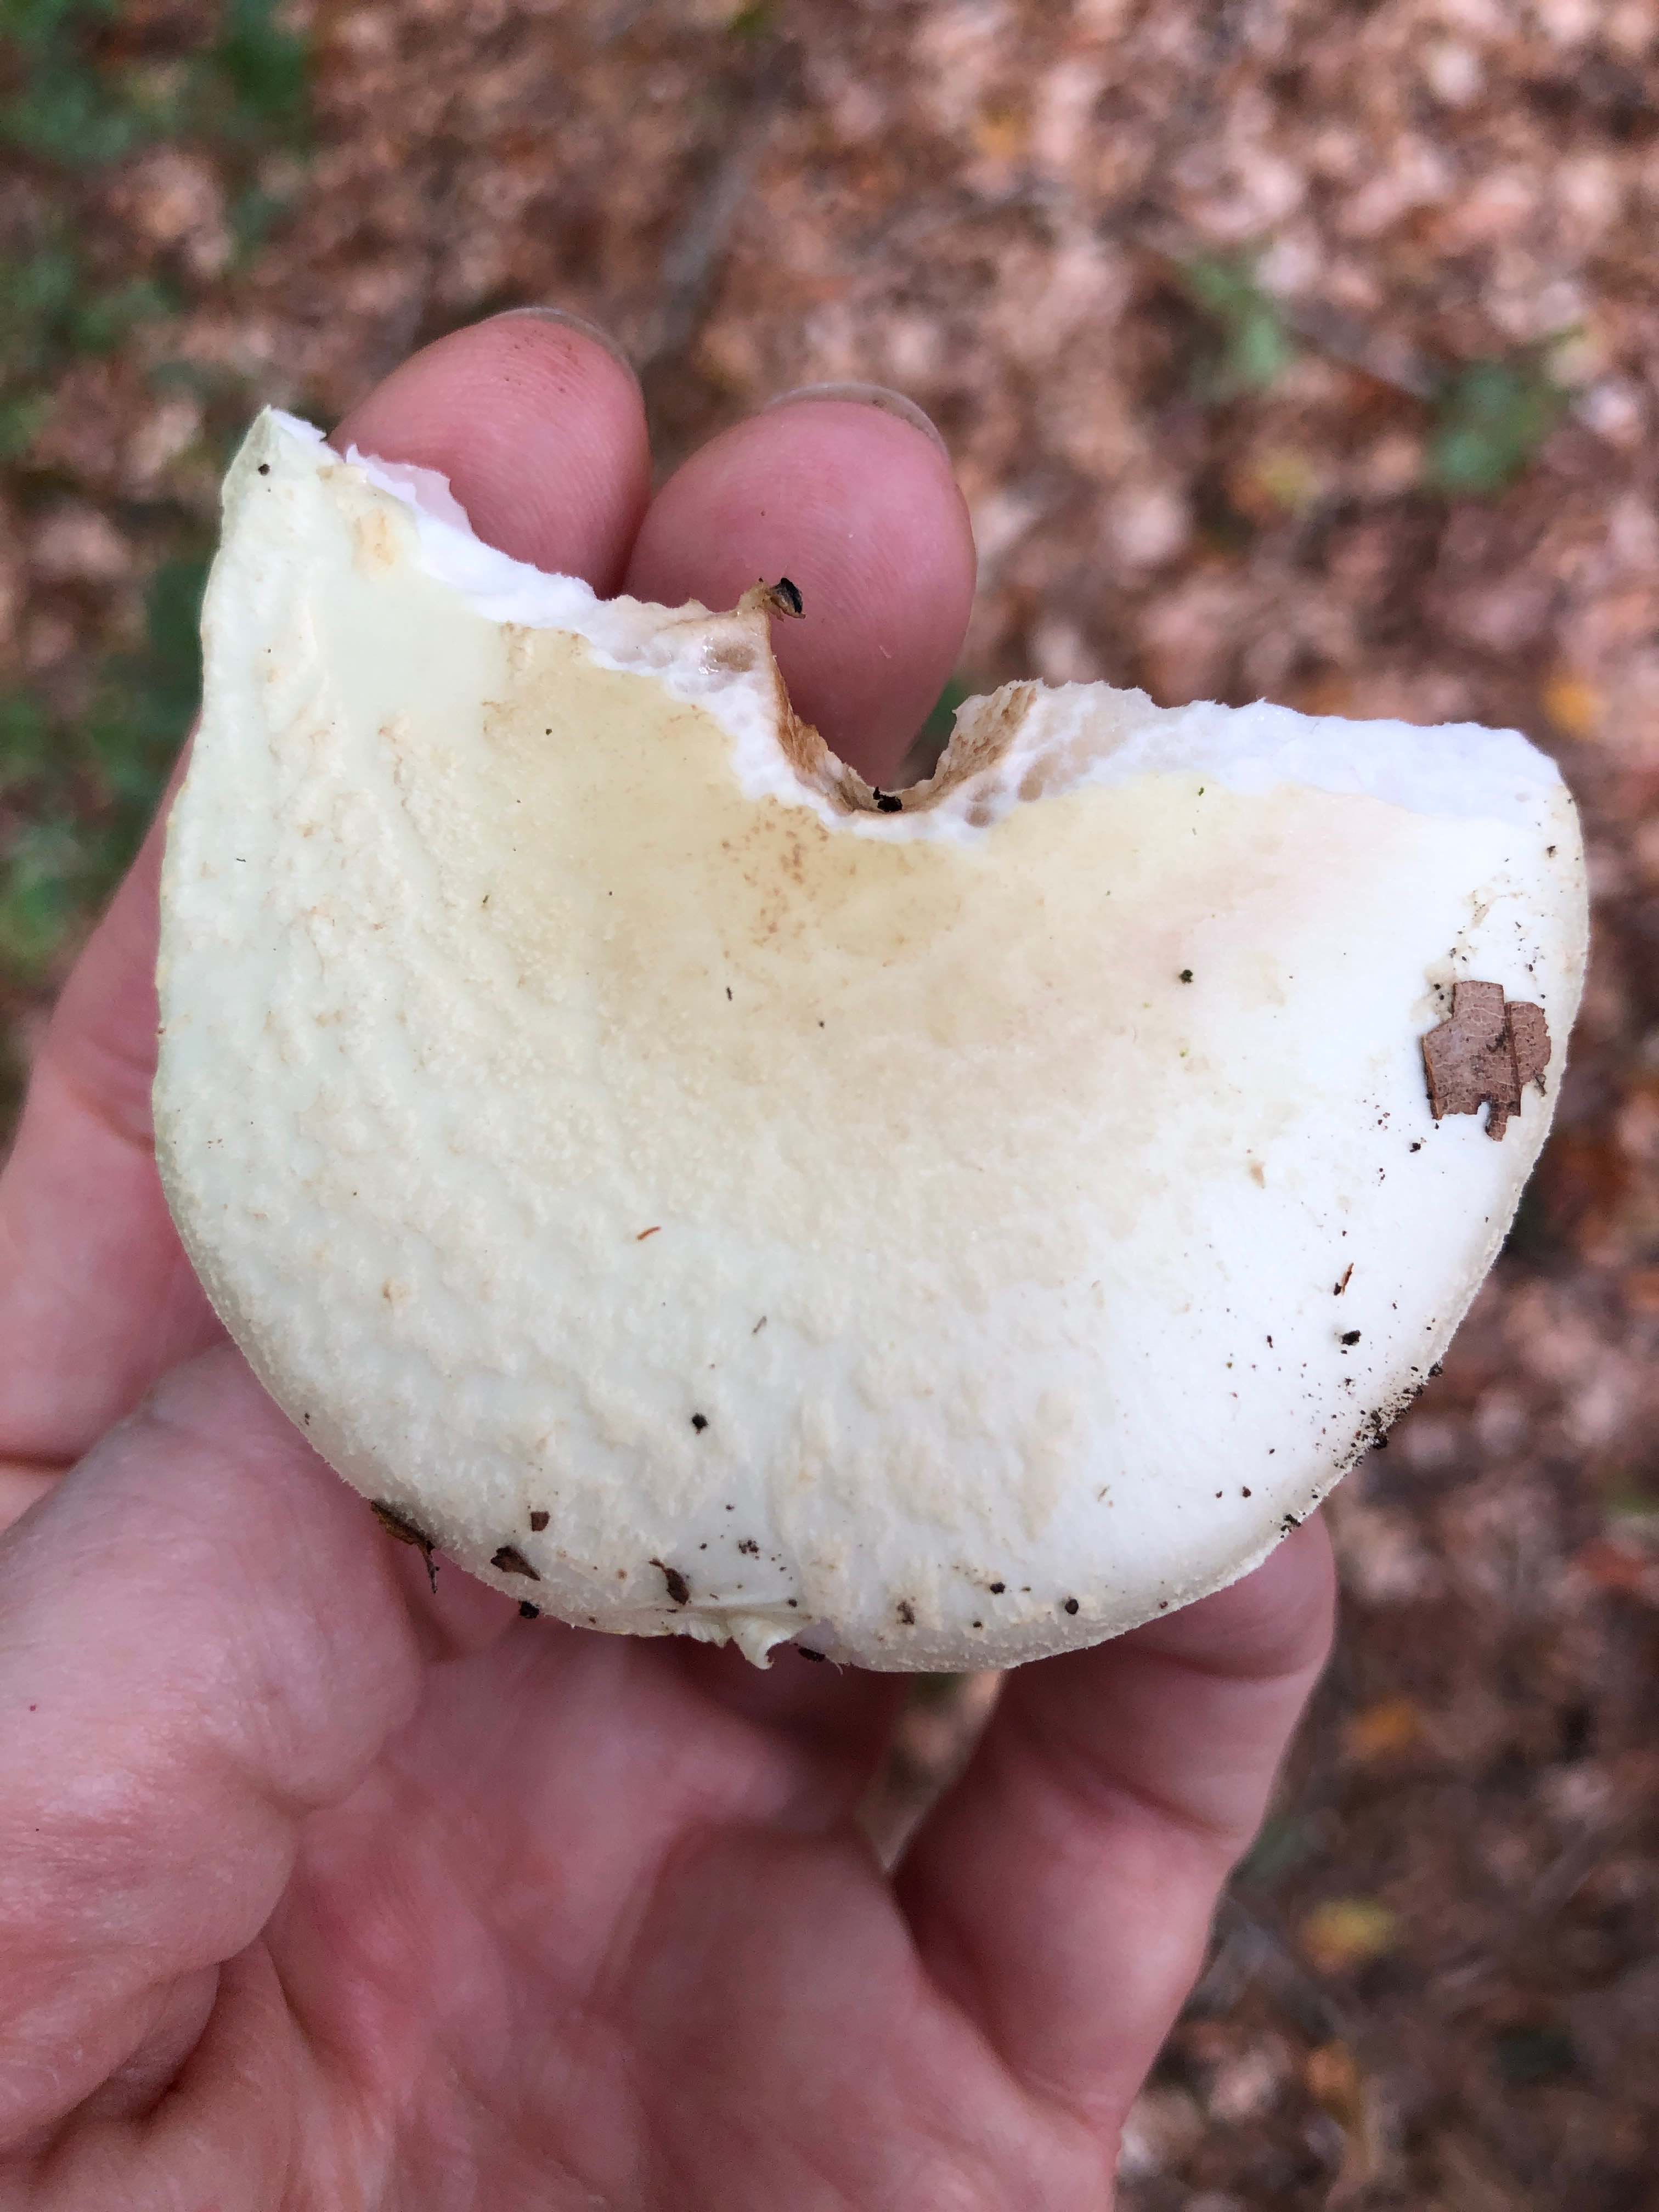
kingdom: Fungi
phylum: Basidiomycota
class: Agaricomycetes
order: Agaricales
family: Amanitaceae
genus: Amanita
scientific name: Amanita citrina
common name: kugleknoldet fluesvamp
